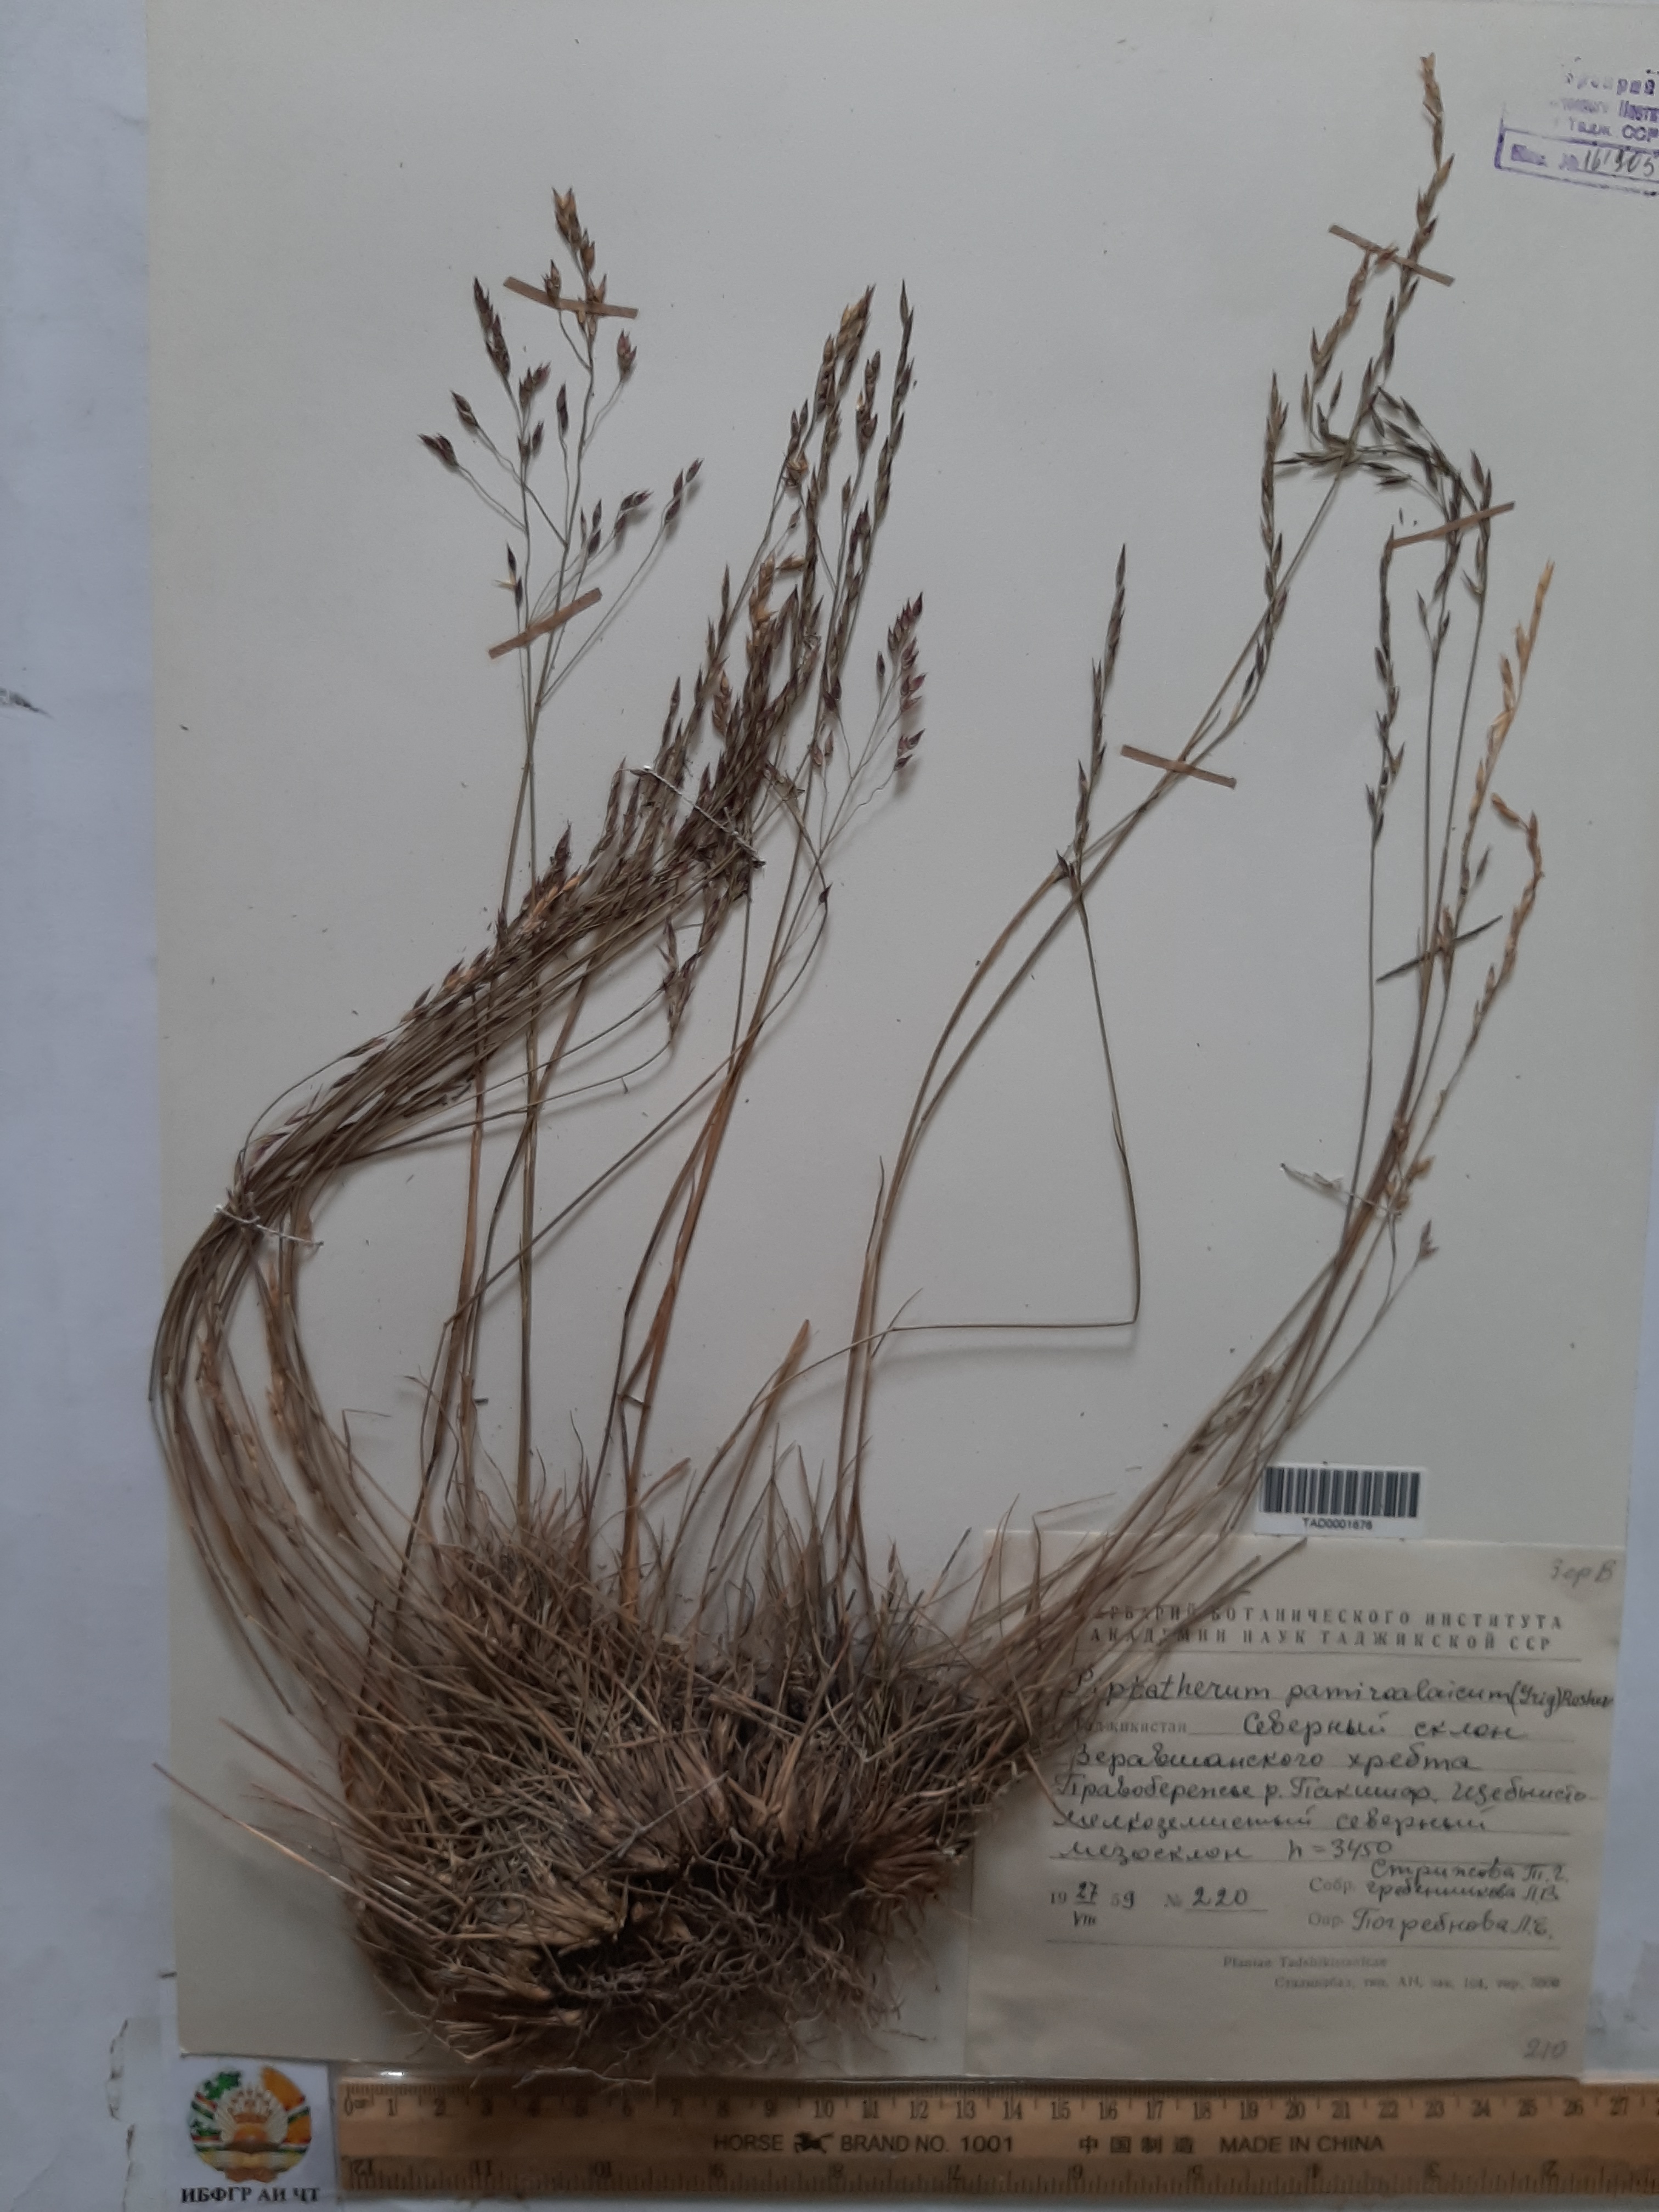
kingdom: Plantae
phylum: Tracheophyta
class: Liliopsida
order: Poales
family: Poaceae
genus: Piptatherum
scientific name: Piptatherum latifolium
